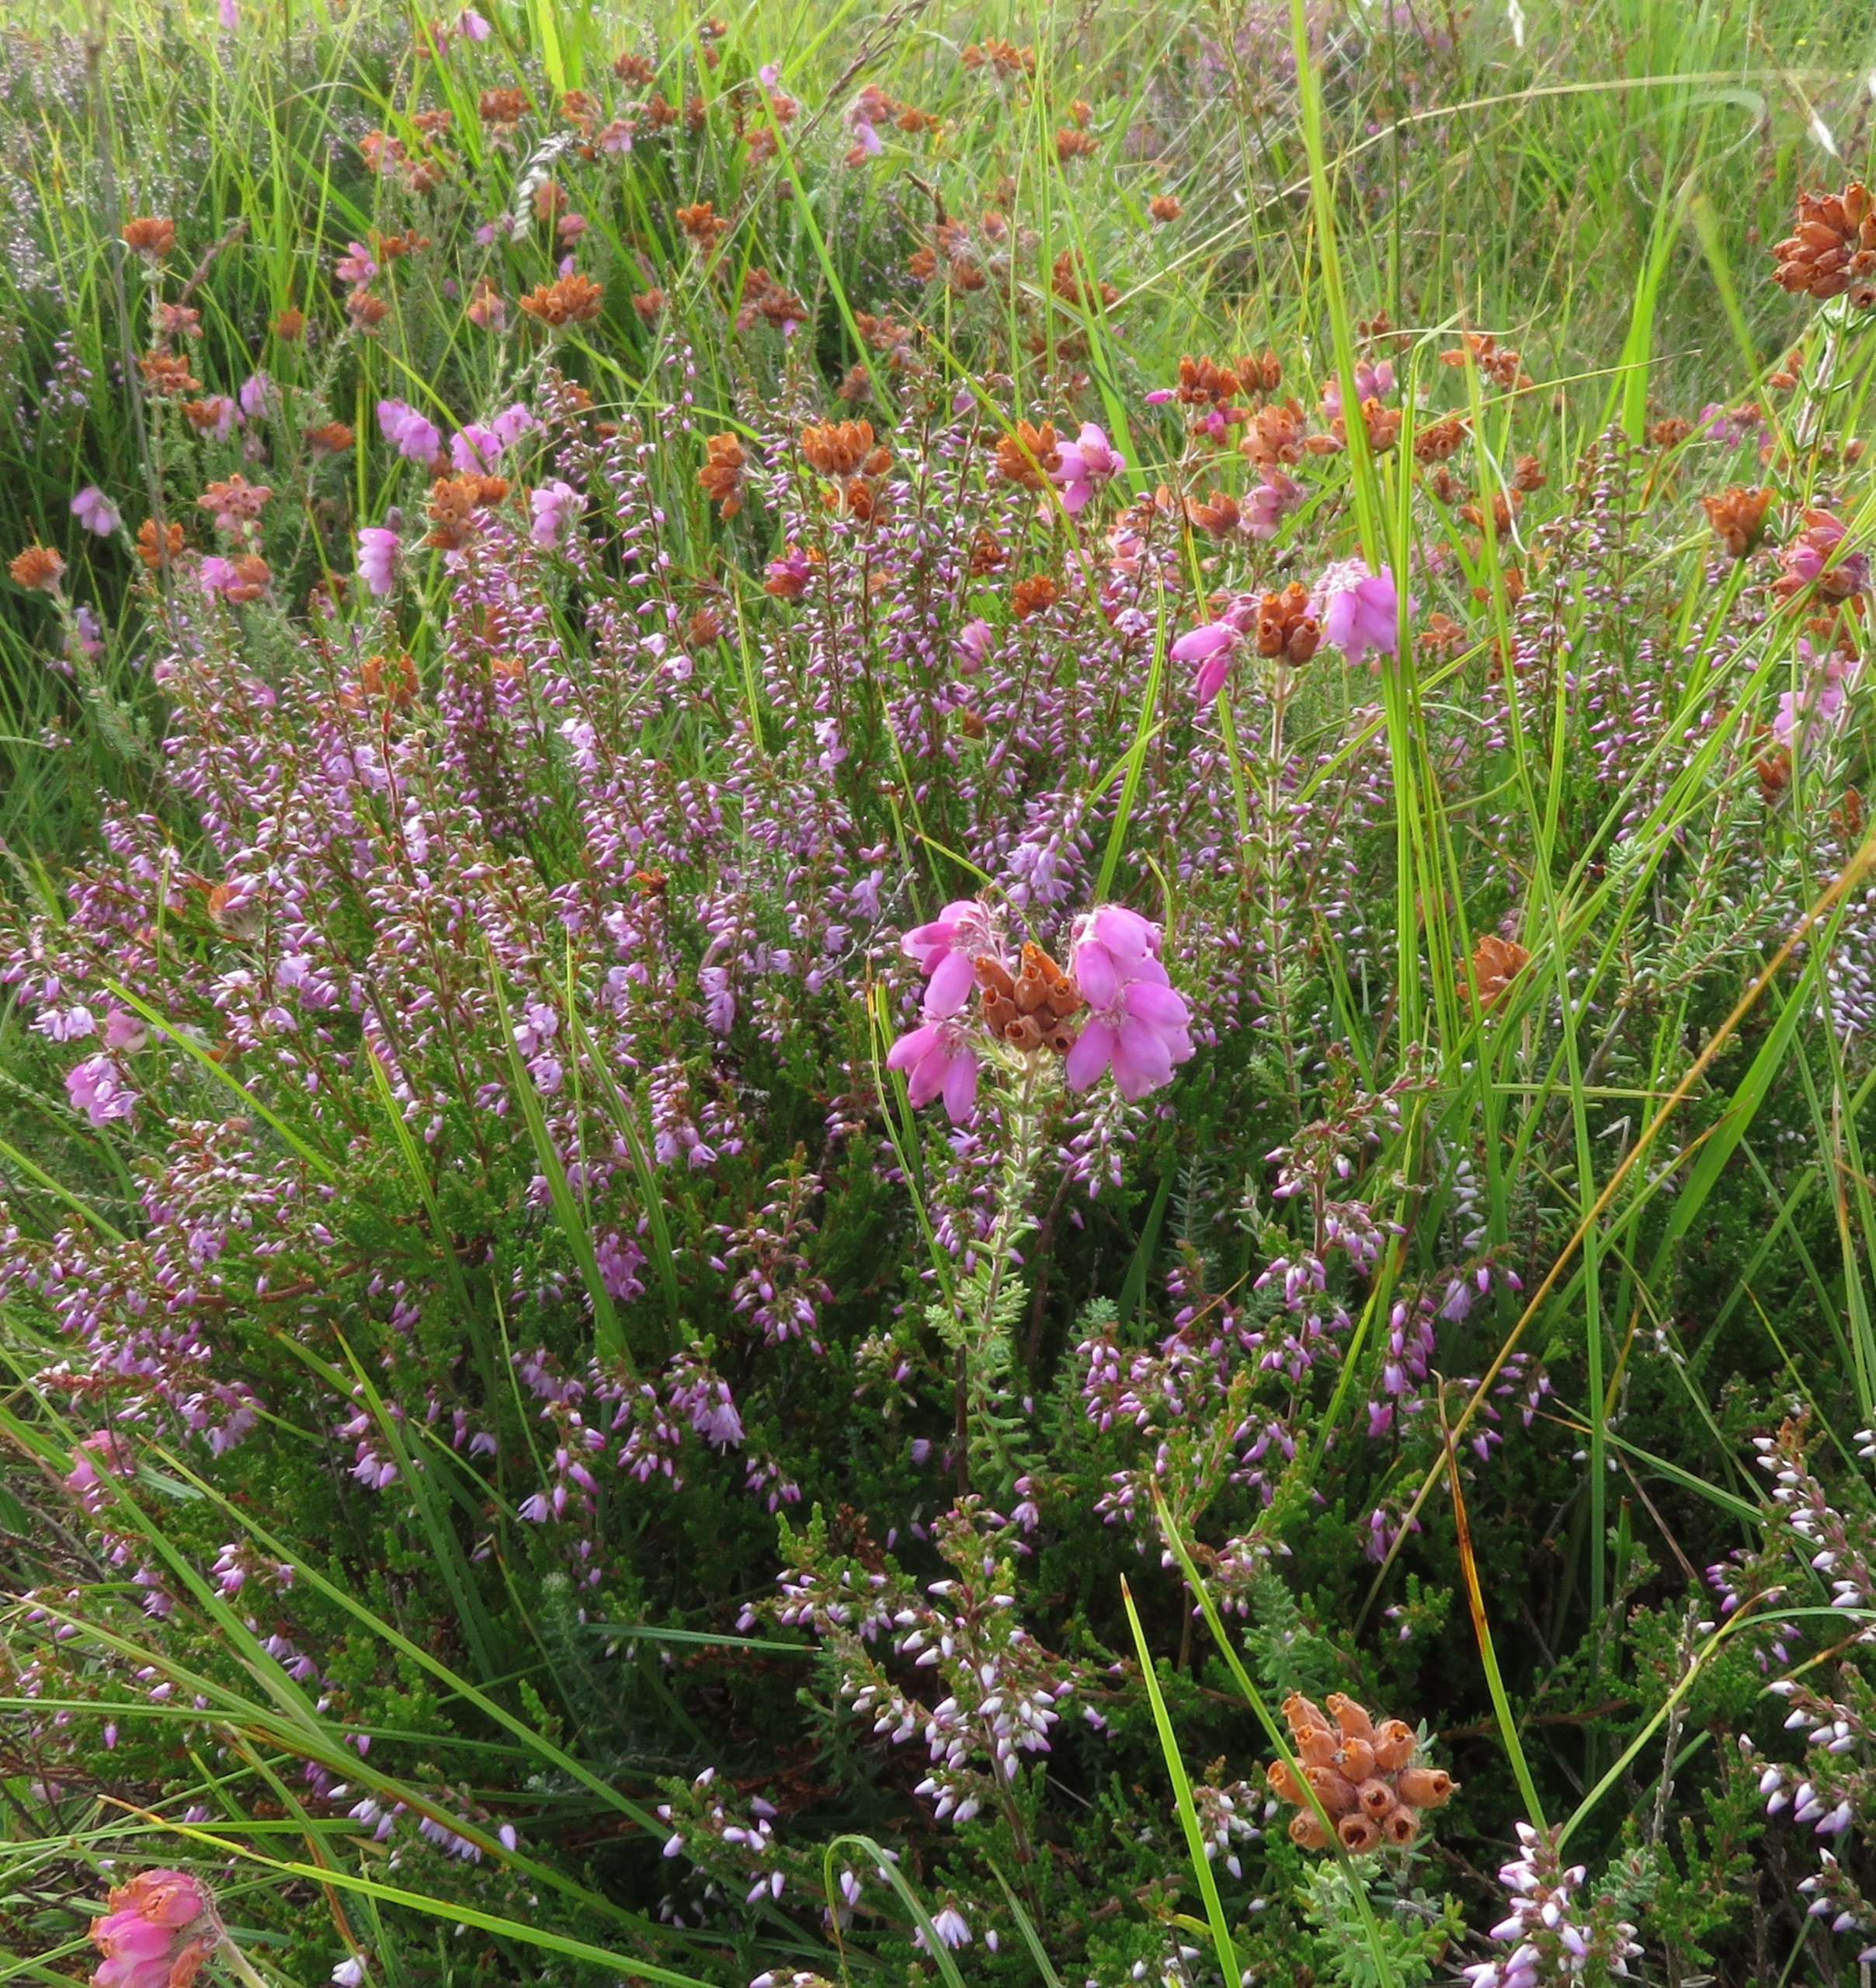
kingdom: Plantae
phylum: Tracheophyta
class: Magnoliopsida
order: Ericales
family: Ericaceae
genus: Erica
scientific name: Erica tetralix
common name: Klokkelyng
